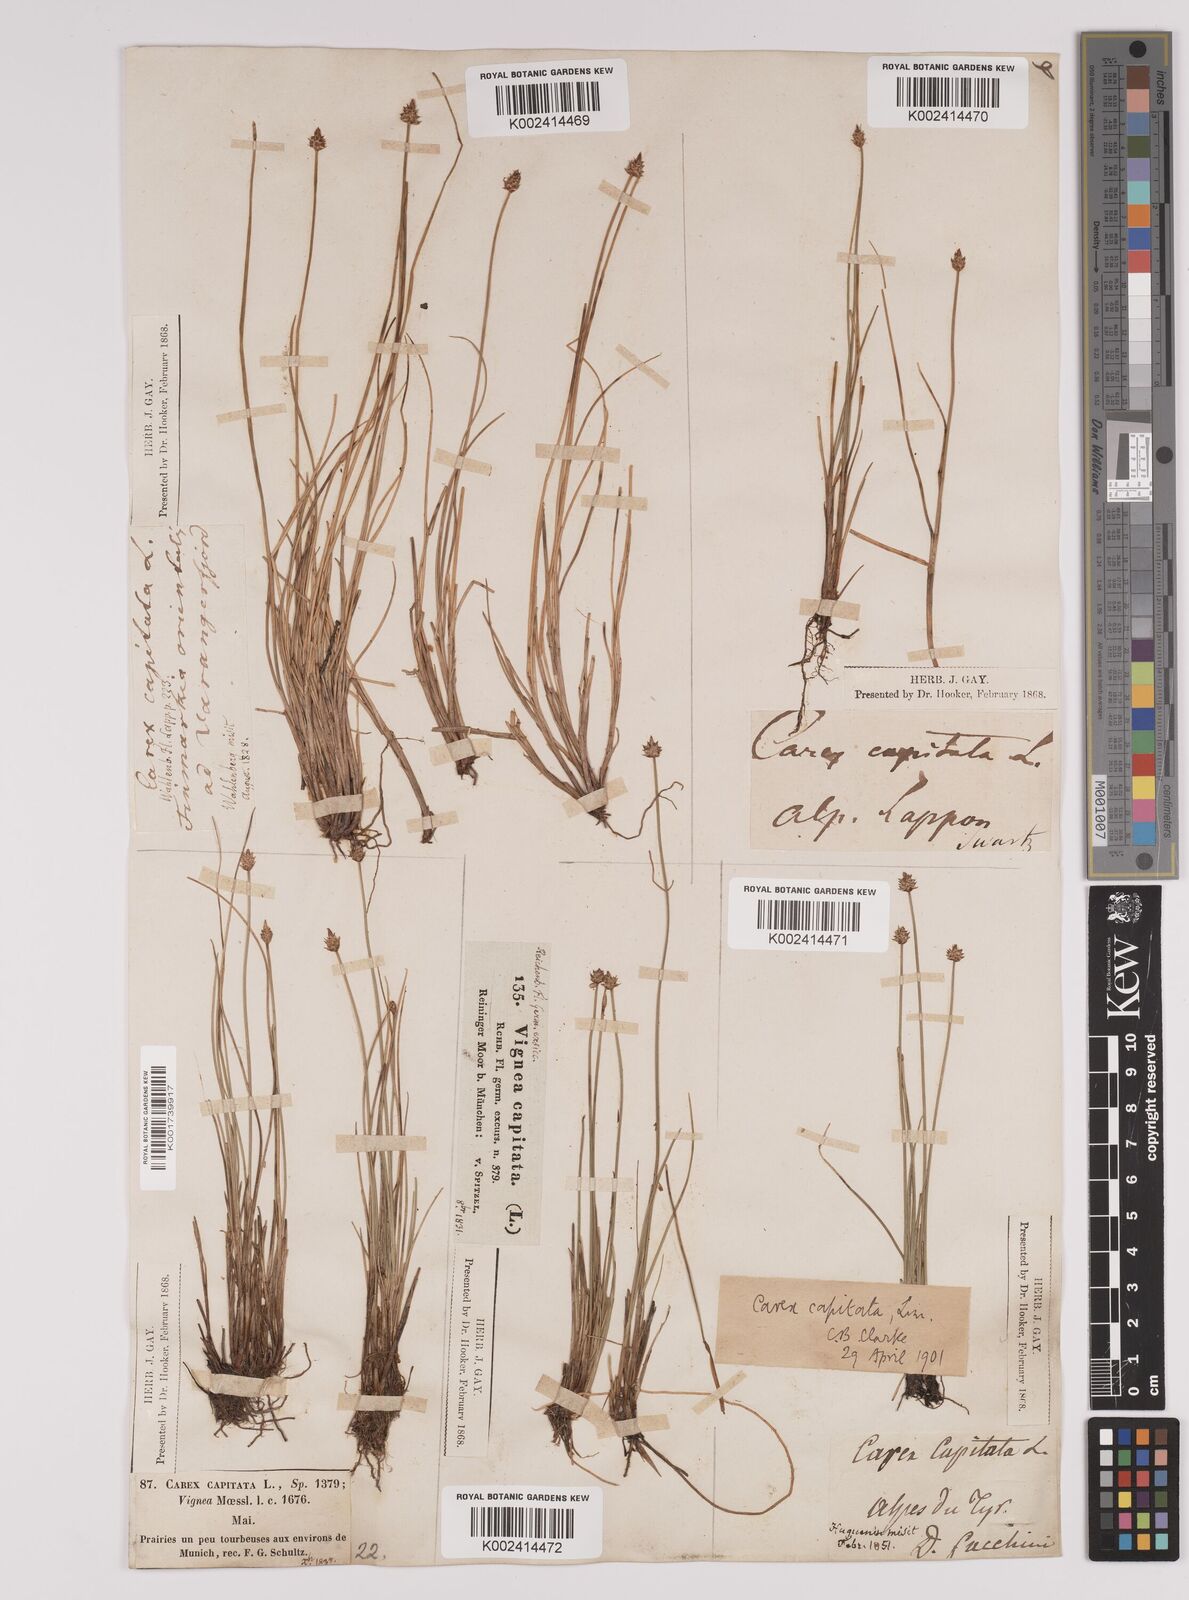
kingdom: Plantae
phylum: Tracheophyta
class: Liliopsida
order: Poales
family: Cyperaceae
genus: Carex
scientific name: Carex capitata
